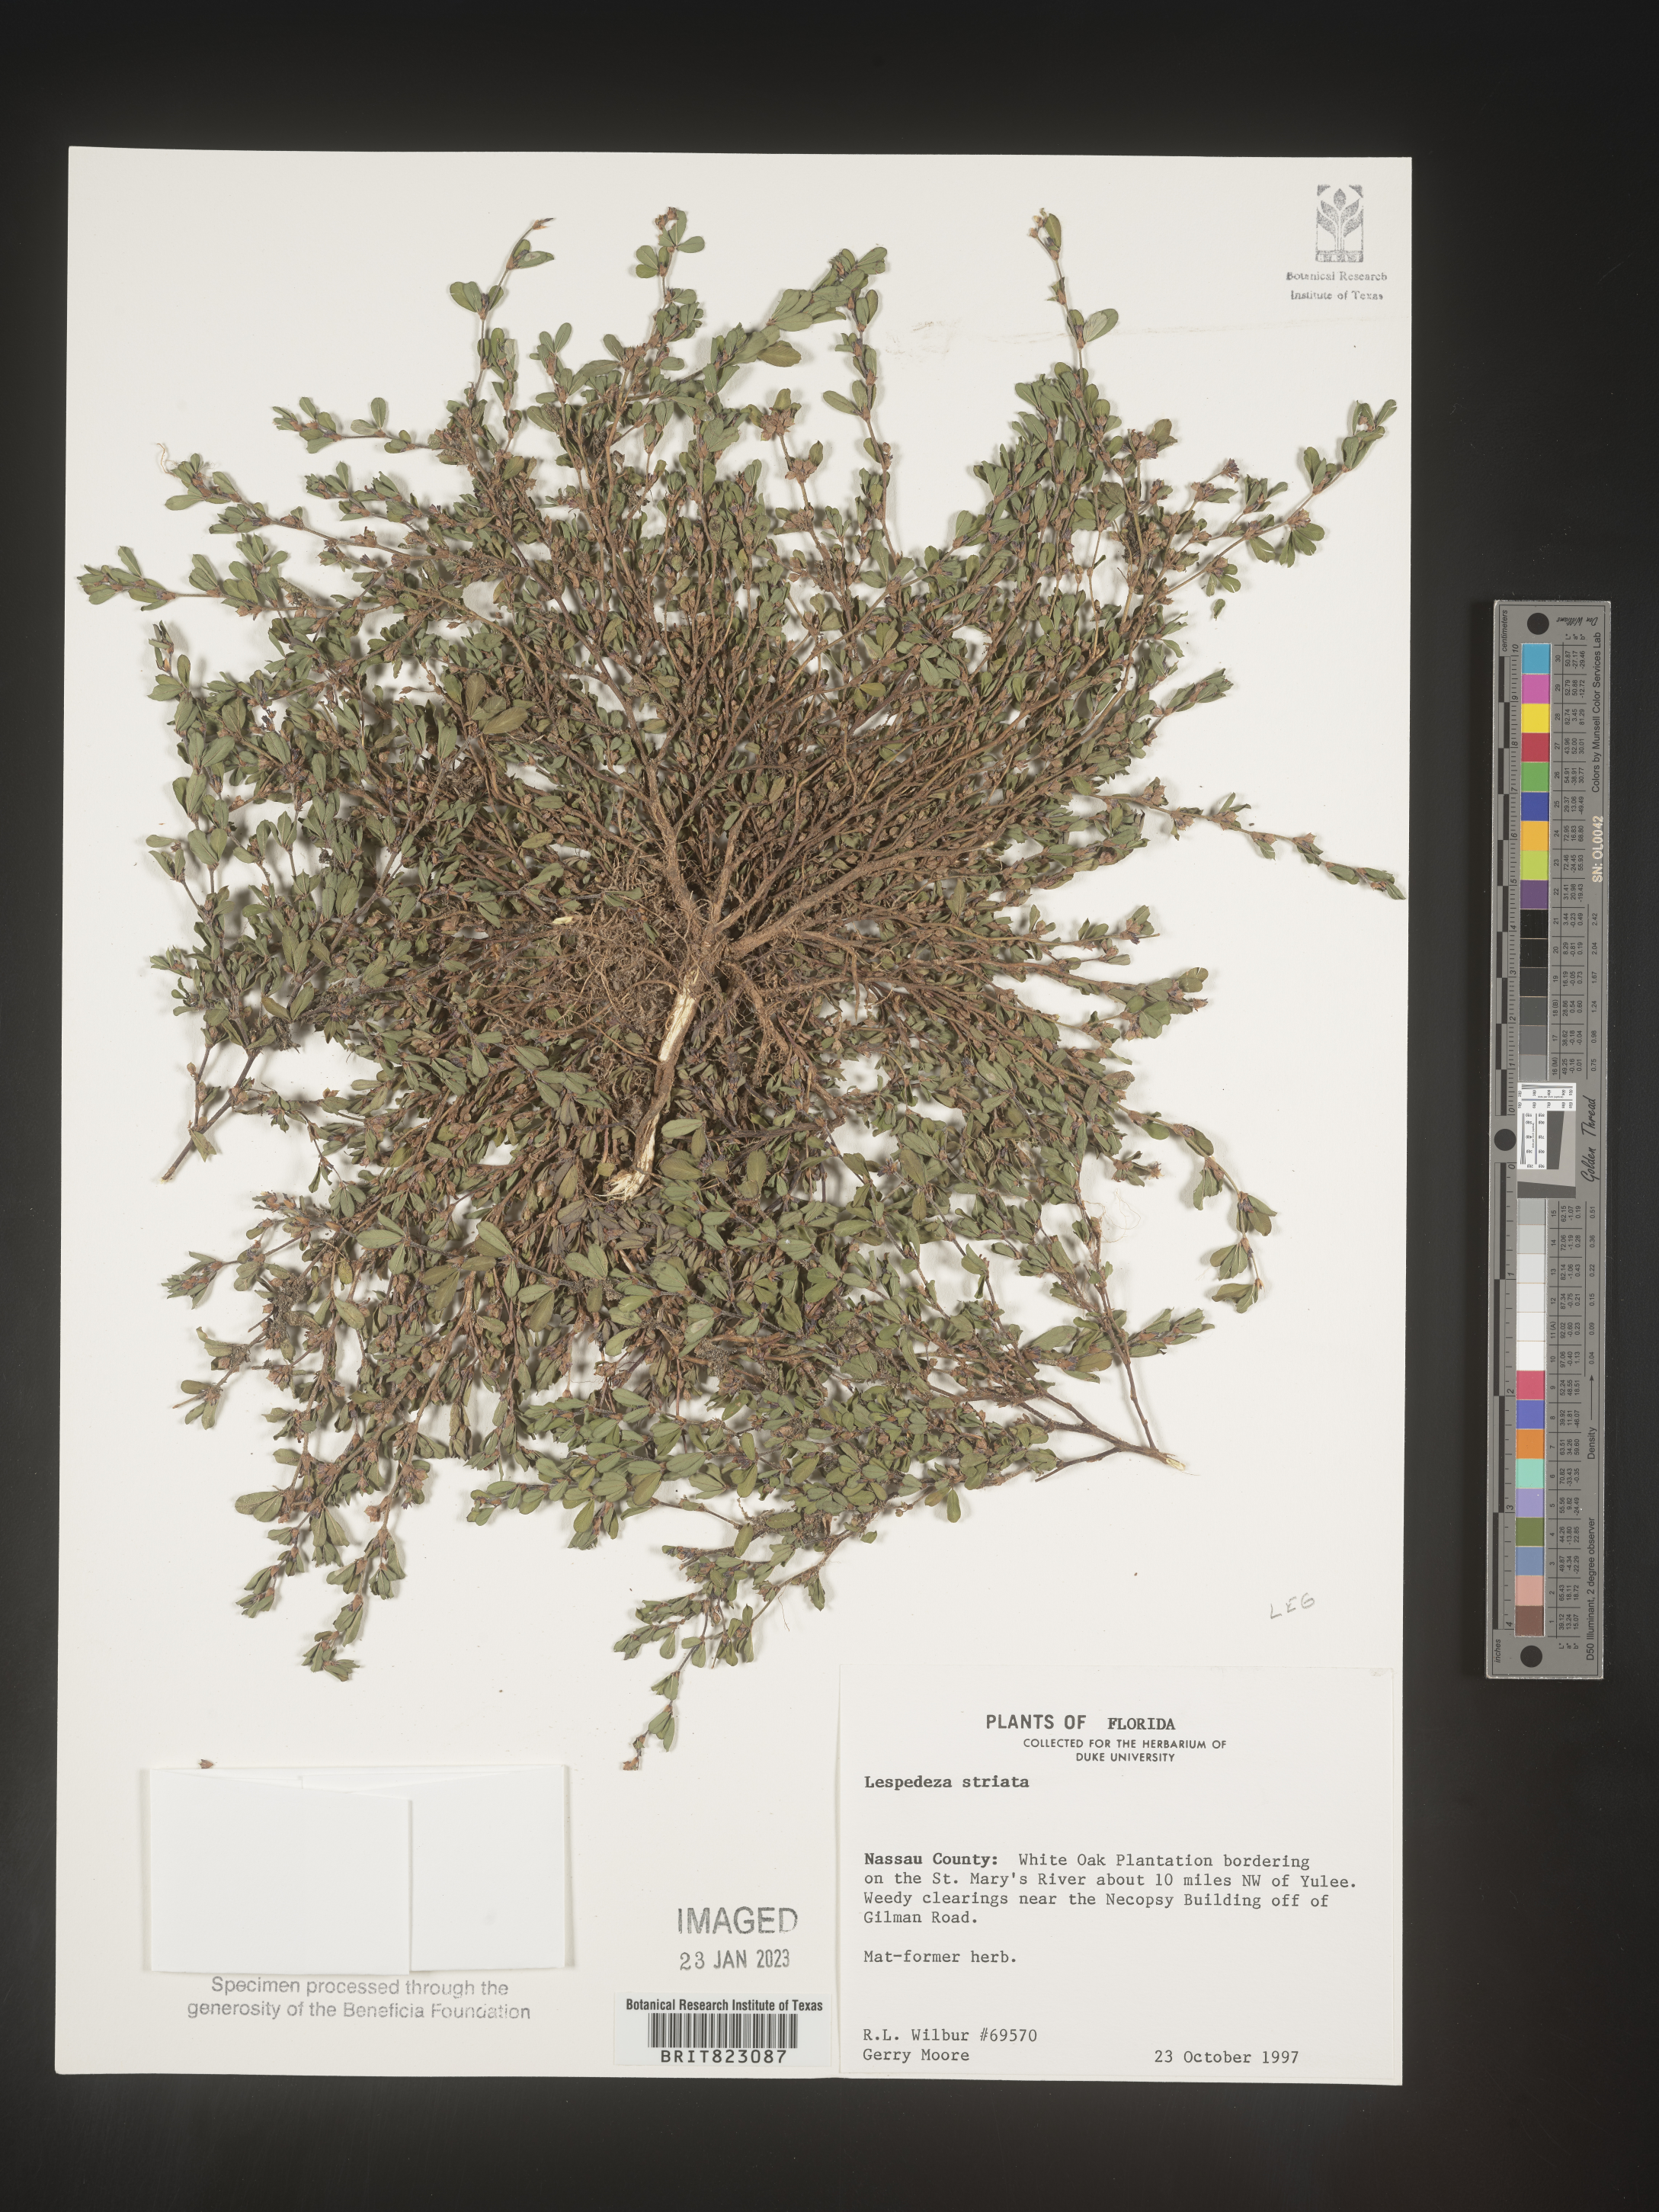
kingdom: Plantae
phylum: Tracheophyta
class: Magnoliopsida
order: Fabales
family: Fabaceae
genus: Kummerowia
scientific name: Kummerowia striata
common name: Japanese clover
